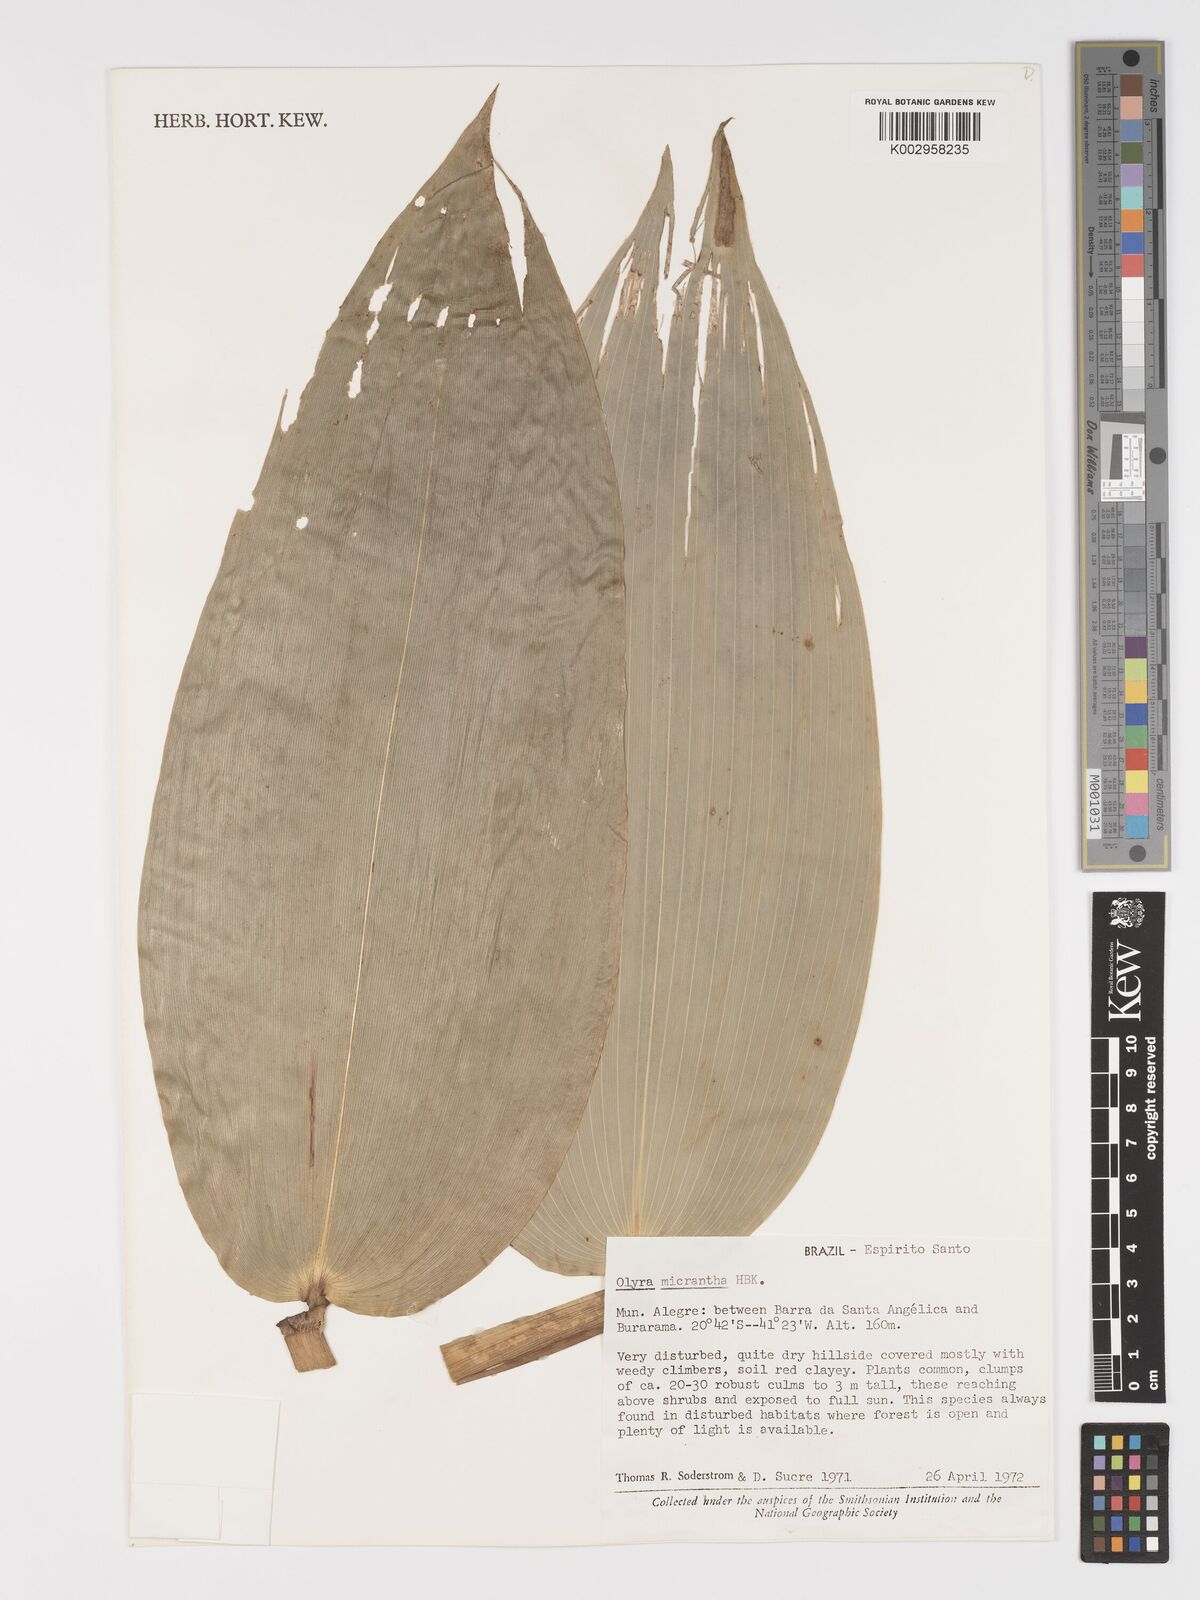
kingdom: Plantae
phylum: Tracheophyta
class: Liliopsida
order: Poales
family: Poaceae
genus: Taquara
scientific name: Taquara micrantha
